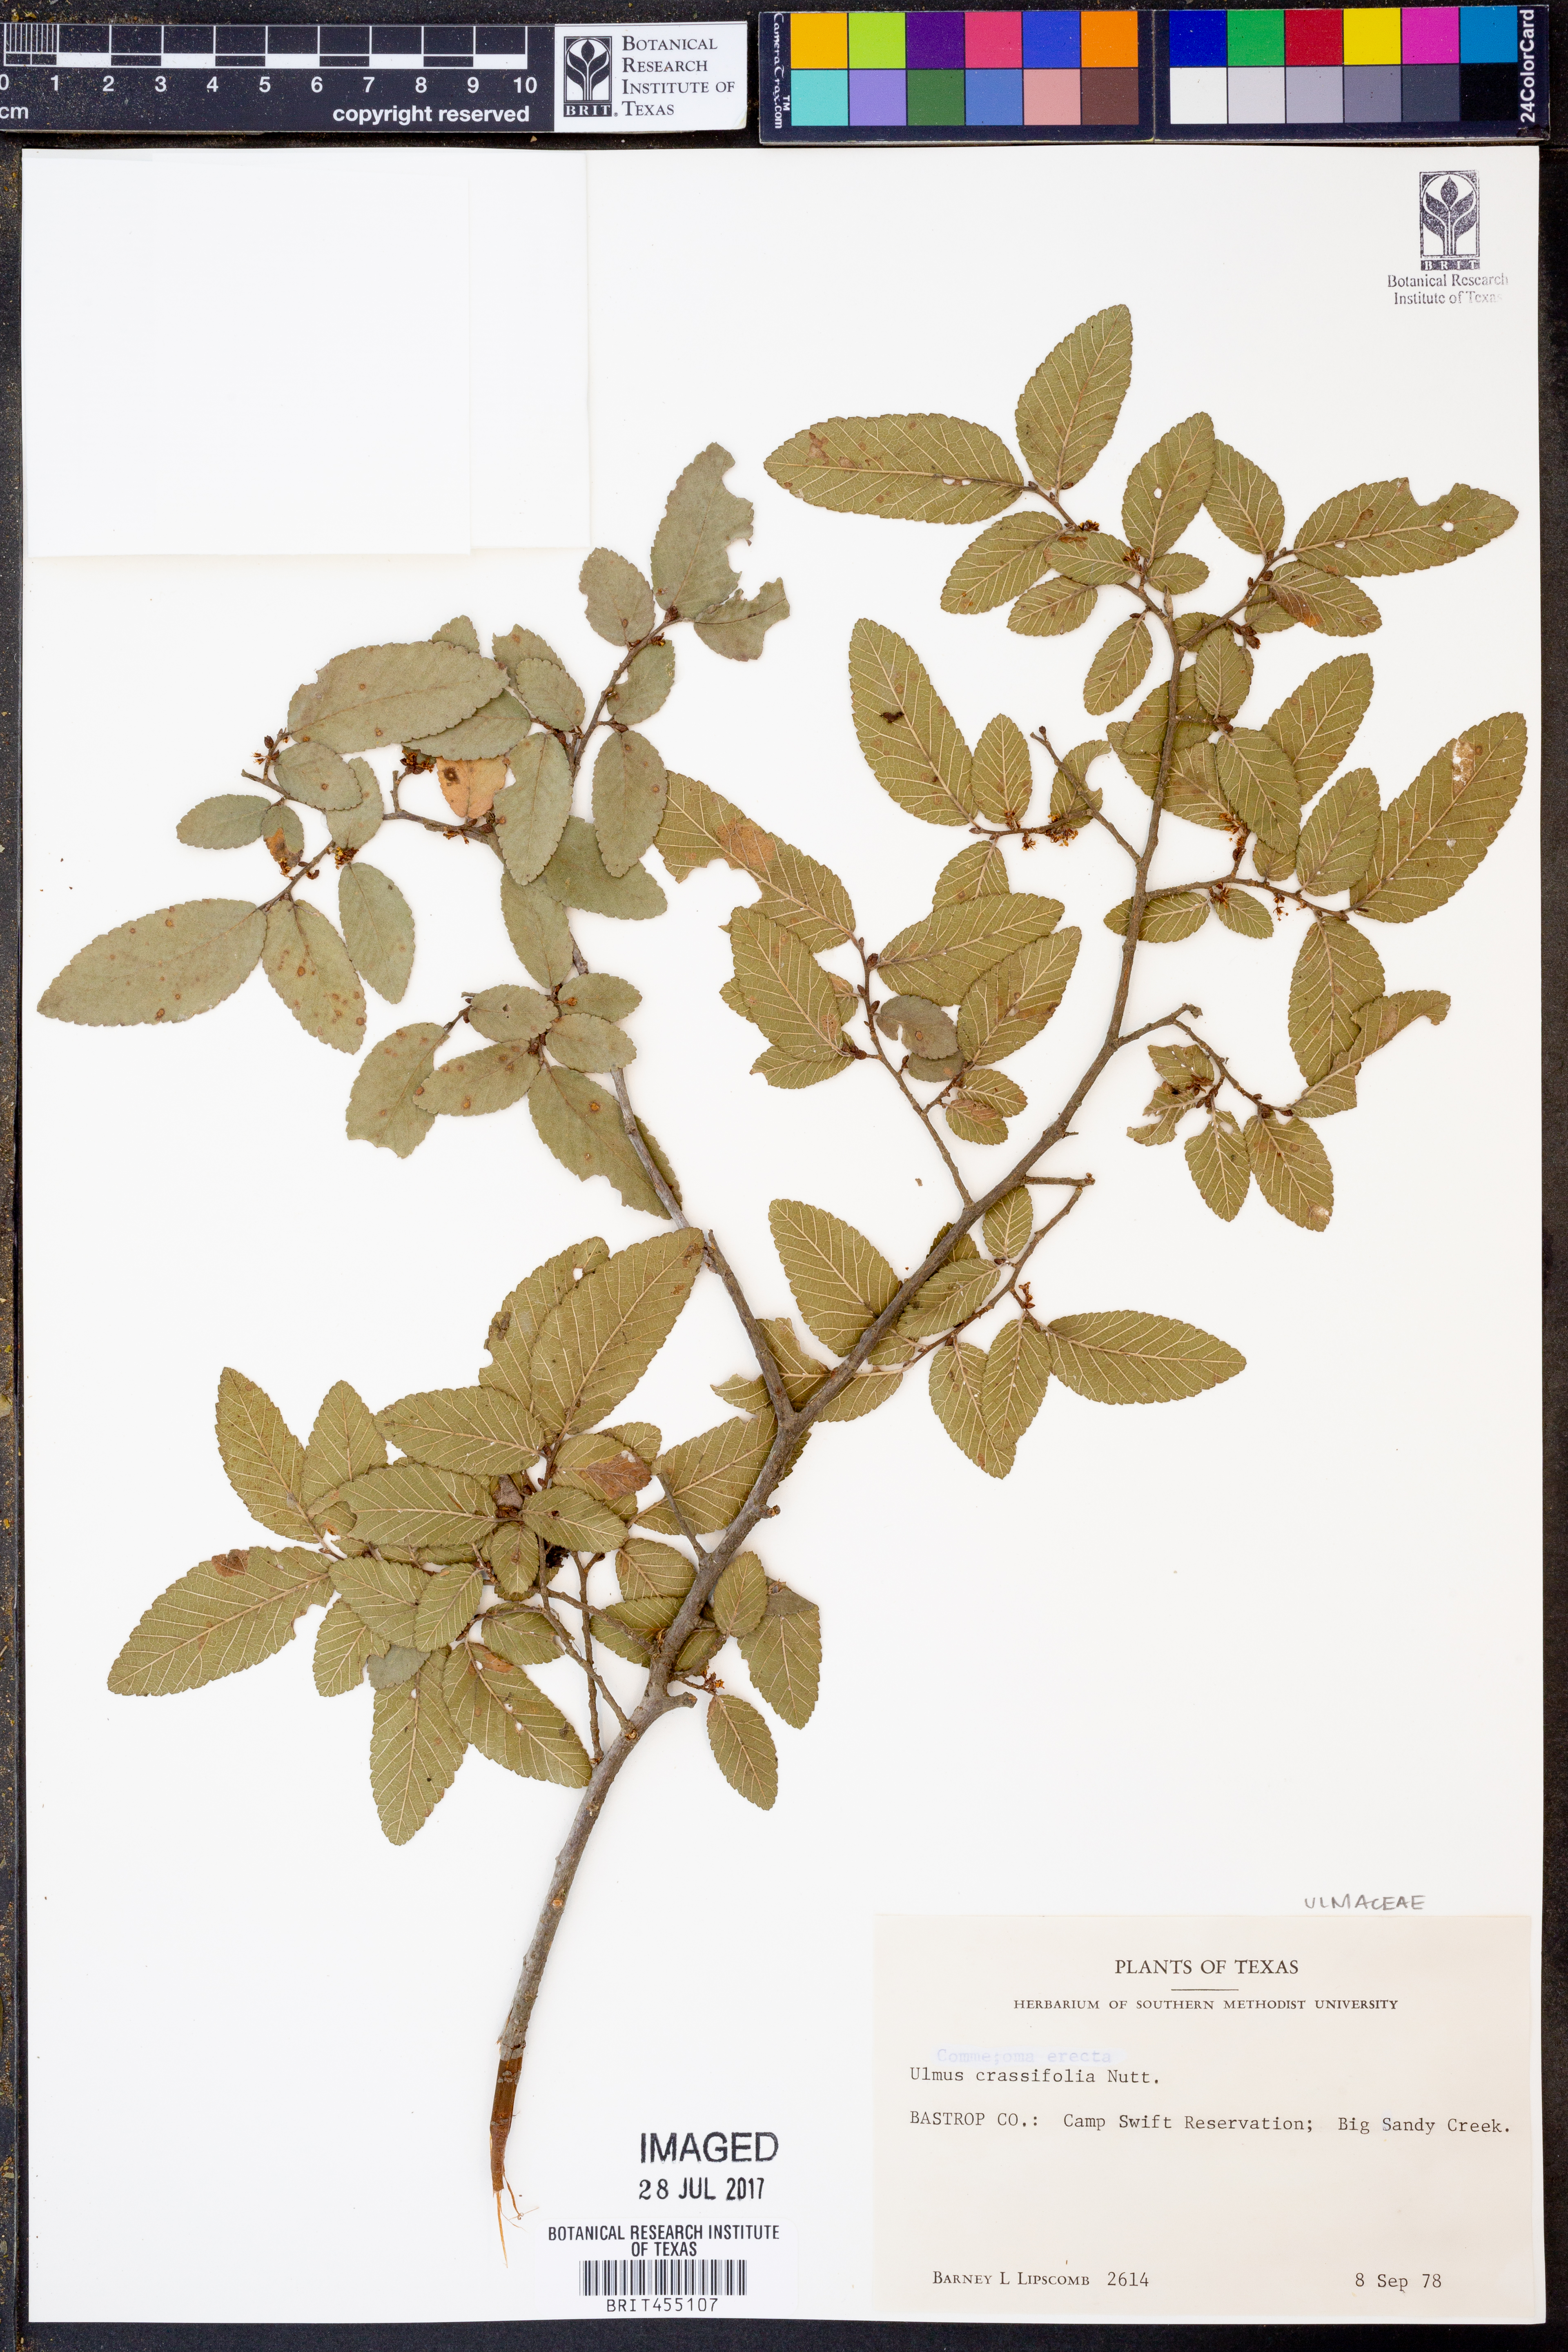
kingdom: Plantae
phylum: Tracheophyta
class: Magnoliopsida
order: Rosales
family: Ulmaceae
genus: Ulmus
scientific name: Ulmus crassifolia
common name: Basket elm
